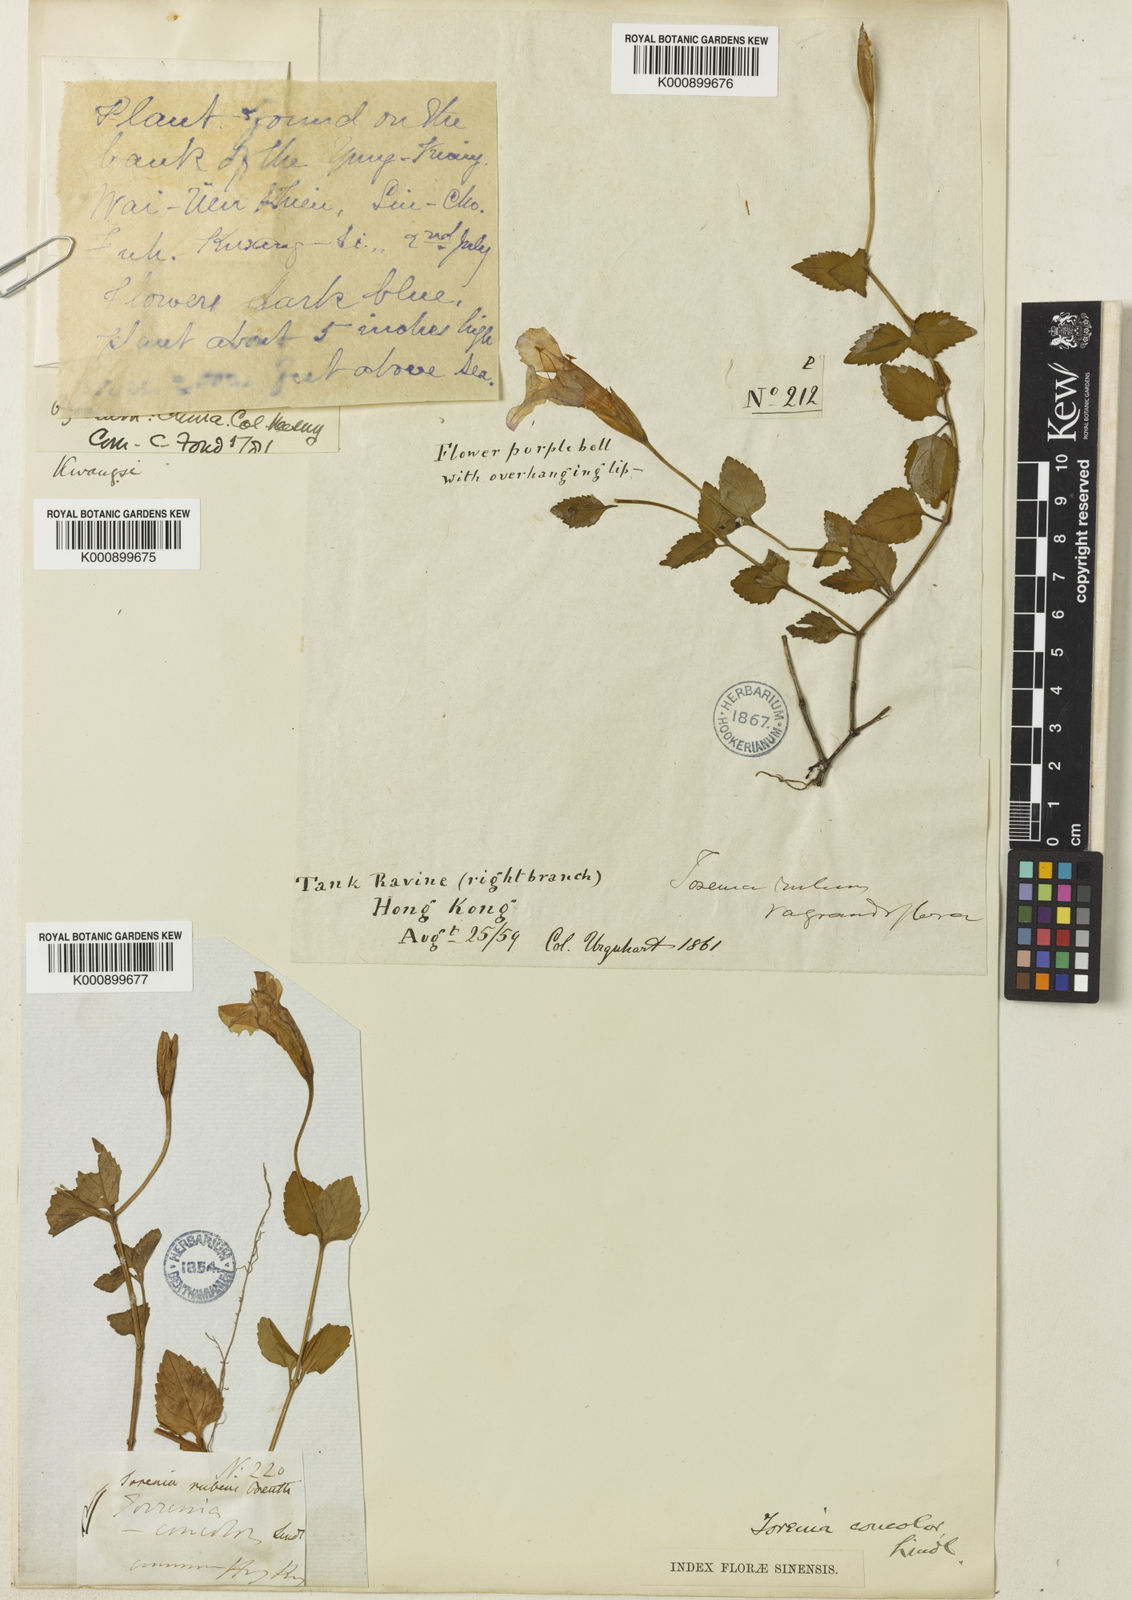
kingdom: Plantae
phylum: Tracheophyta
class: Magnoliopsida
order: Lamiales
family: Linderniaceae
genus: Torenia
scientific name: Torenia
